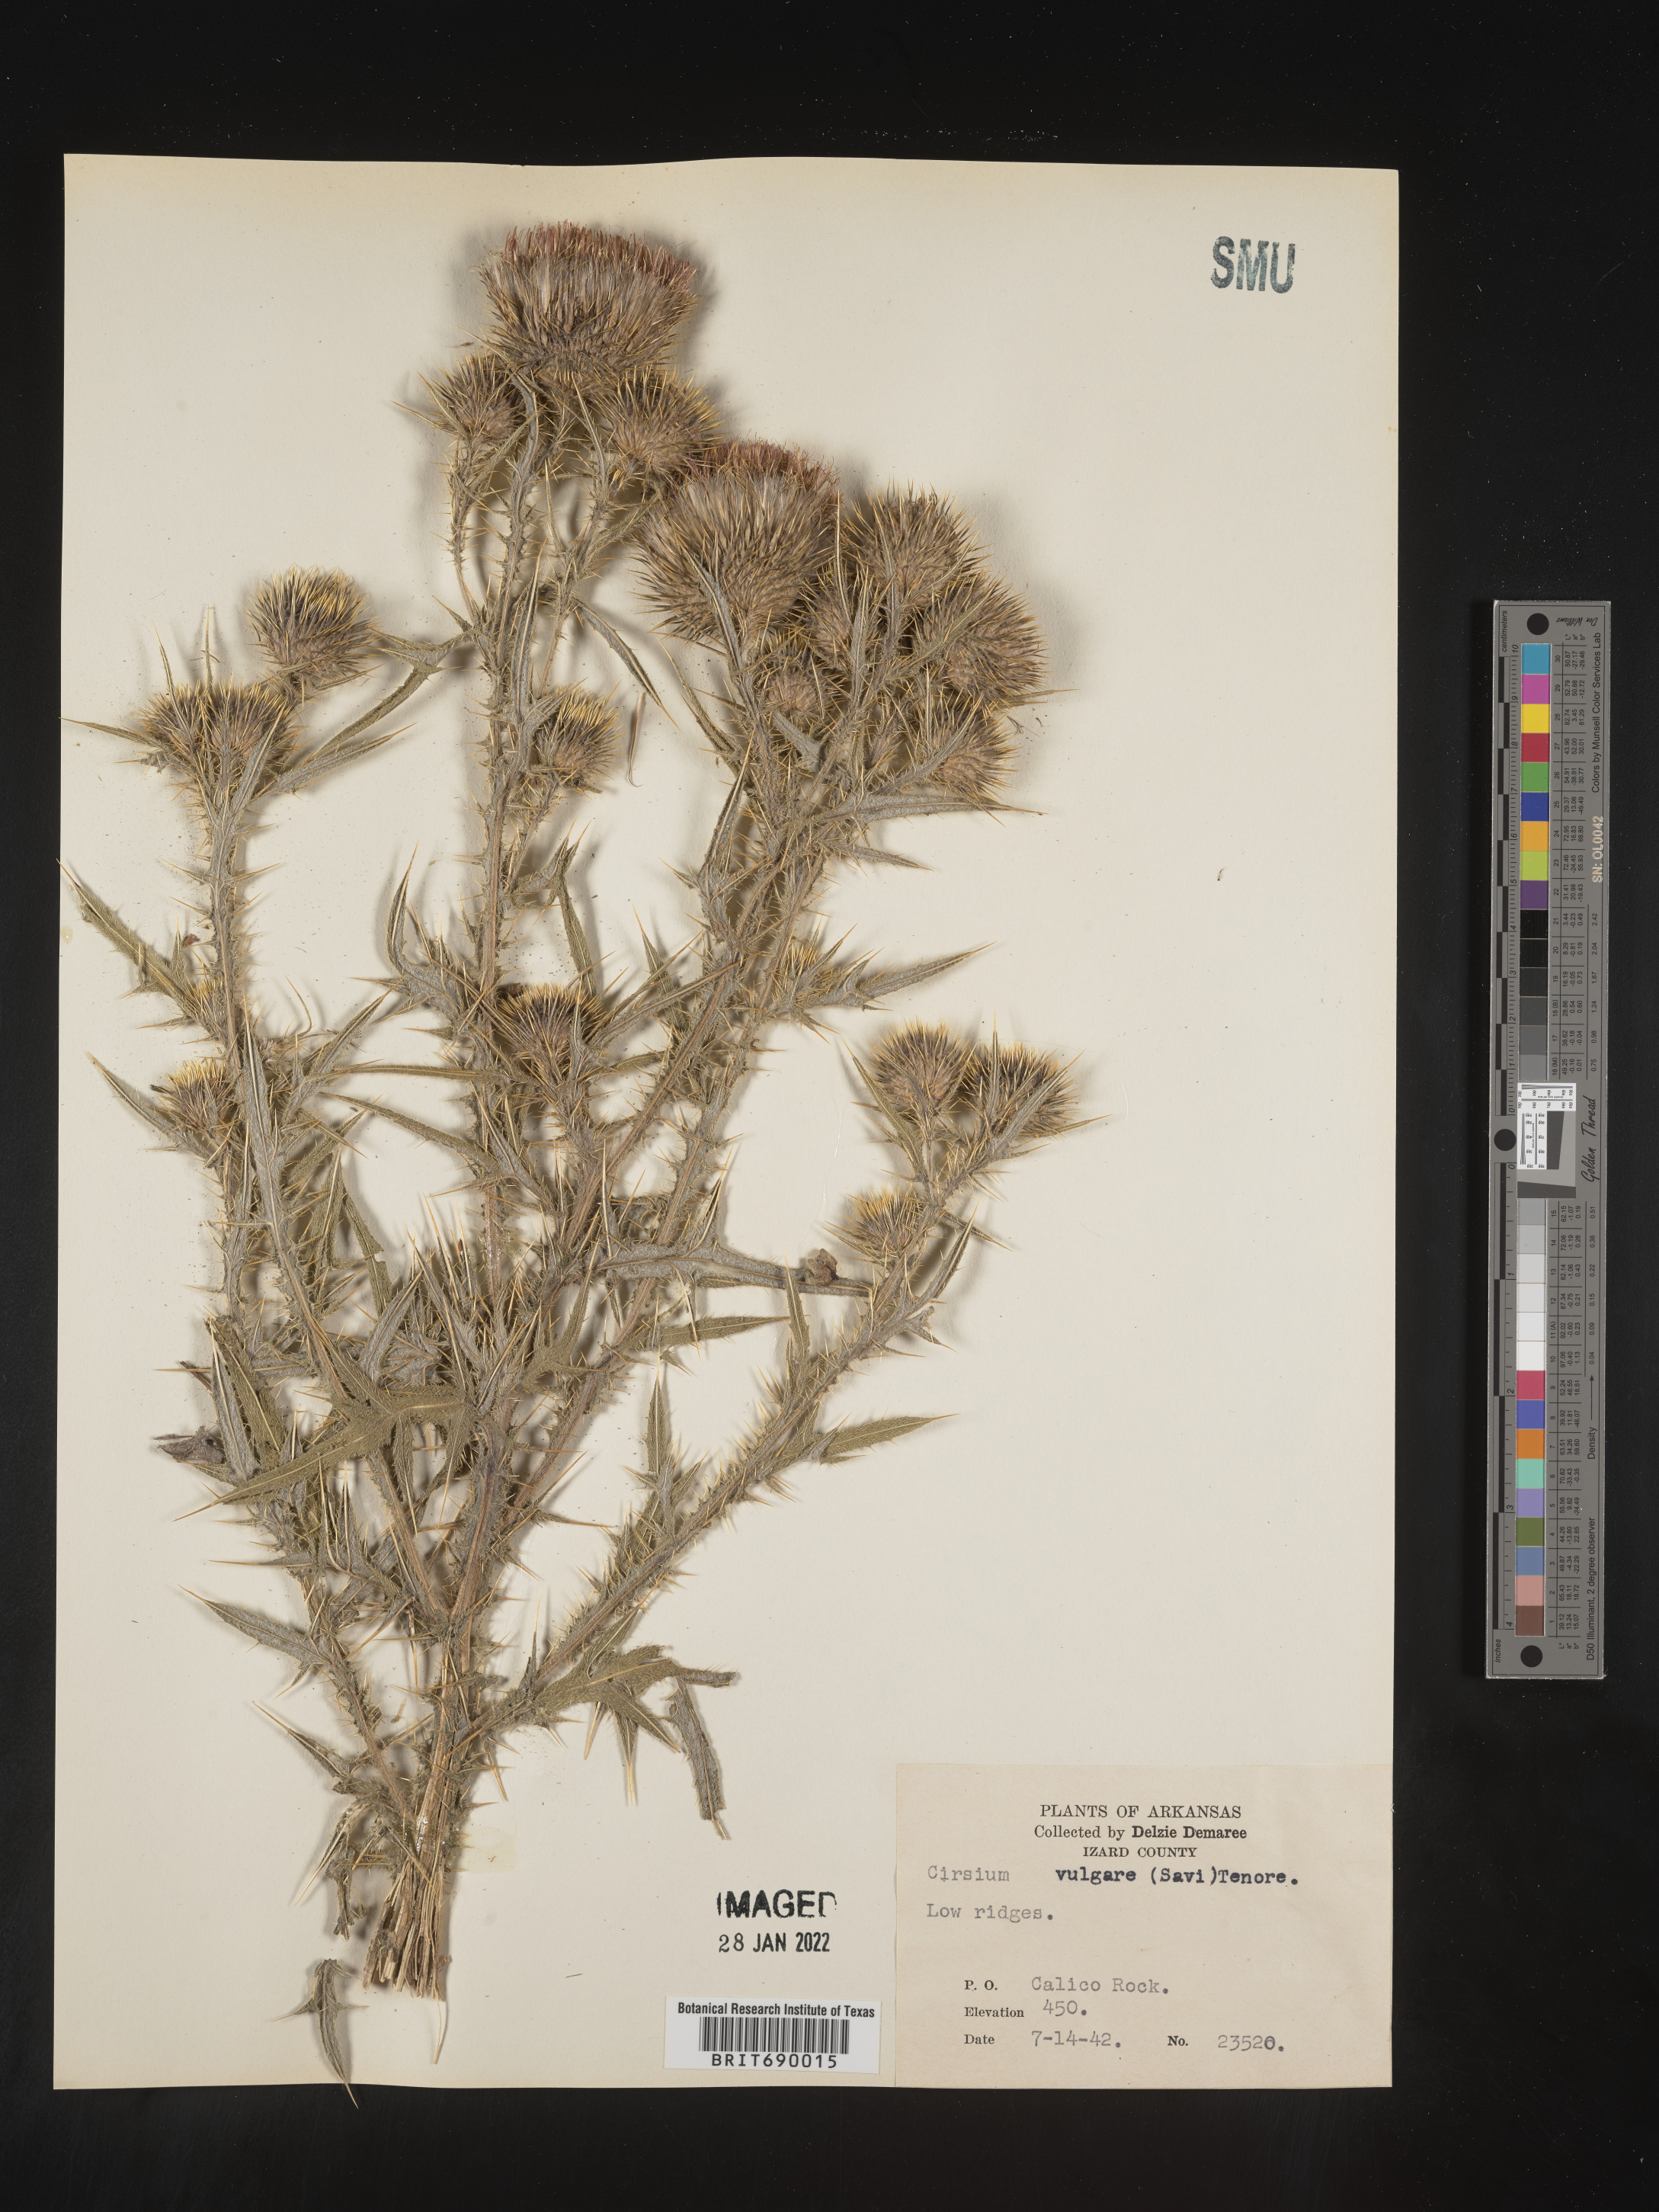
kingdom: Plantae
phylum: Tracheophyta
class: Magnoliopsida
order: Asterales
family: Asteraceae
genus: Cirsium
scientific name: Cirsium vulgare
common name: Bull thistle
